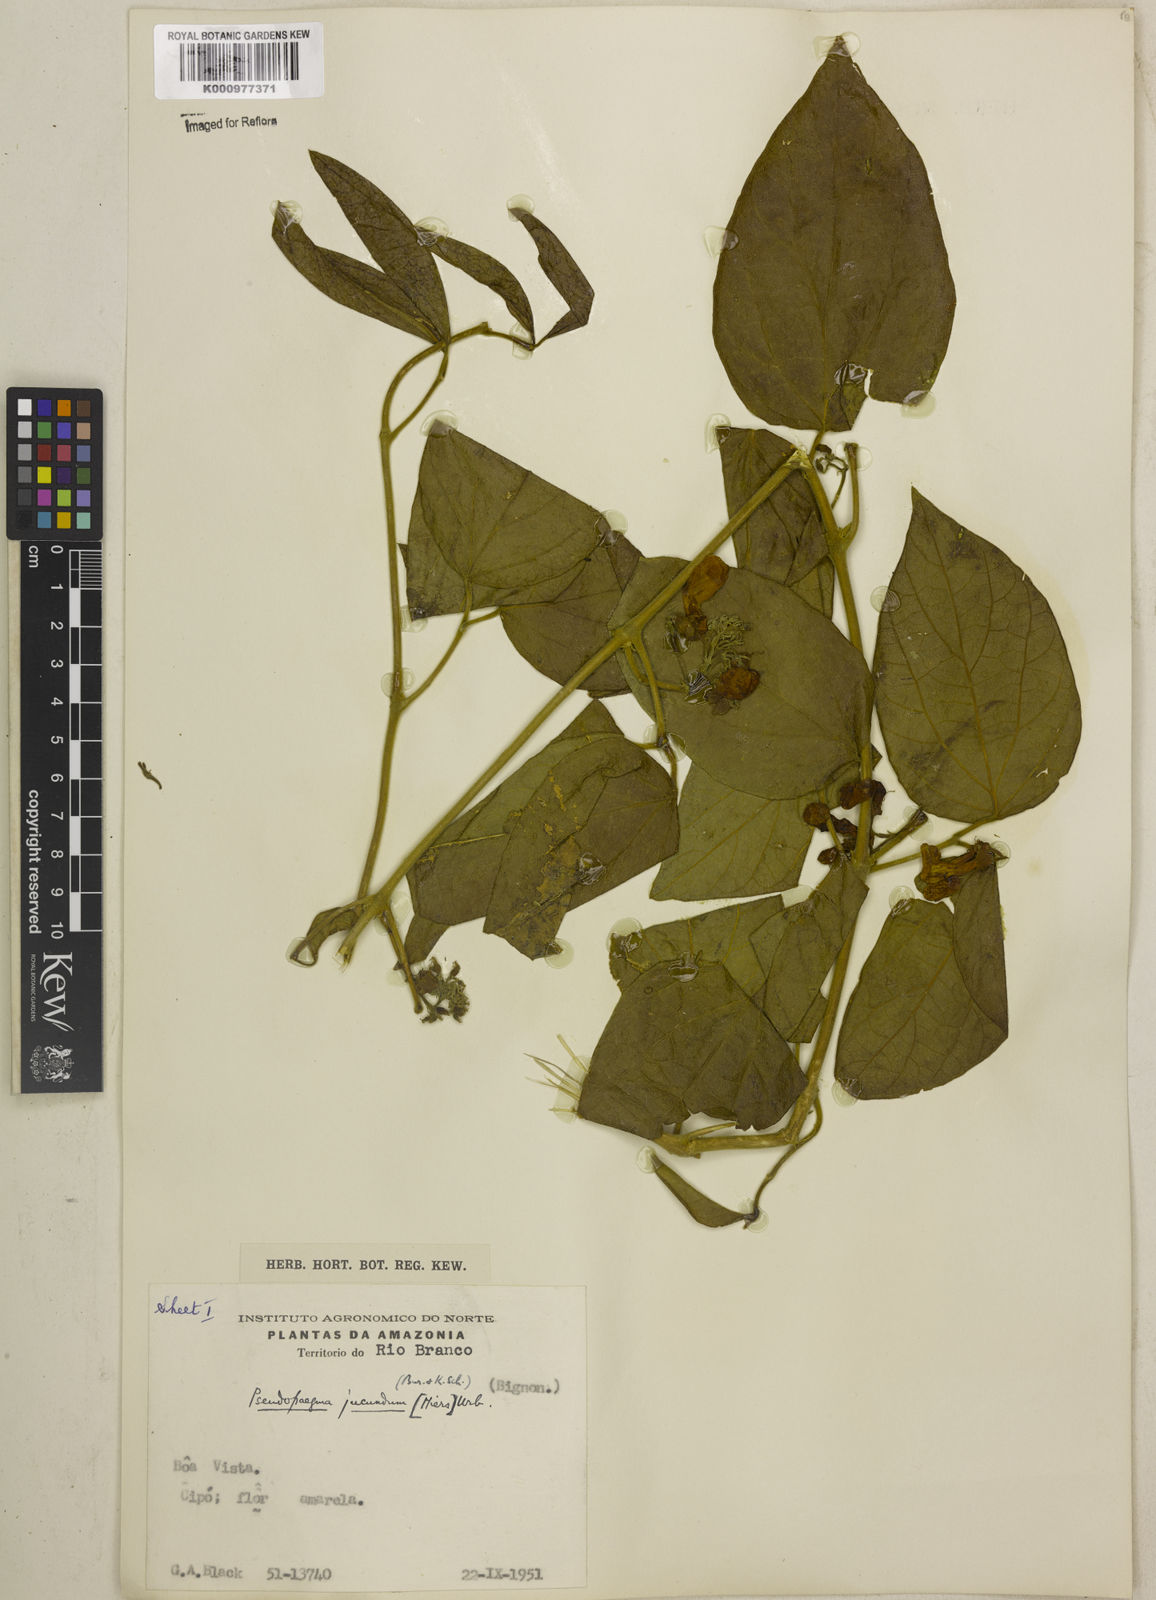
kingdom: Plantae
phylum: Tracheophyta
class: Magnoliopsida
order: Lamiales
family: Bignoniaceae
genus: Anemopaegma
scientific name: Anemopaegma jucundum
